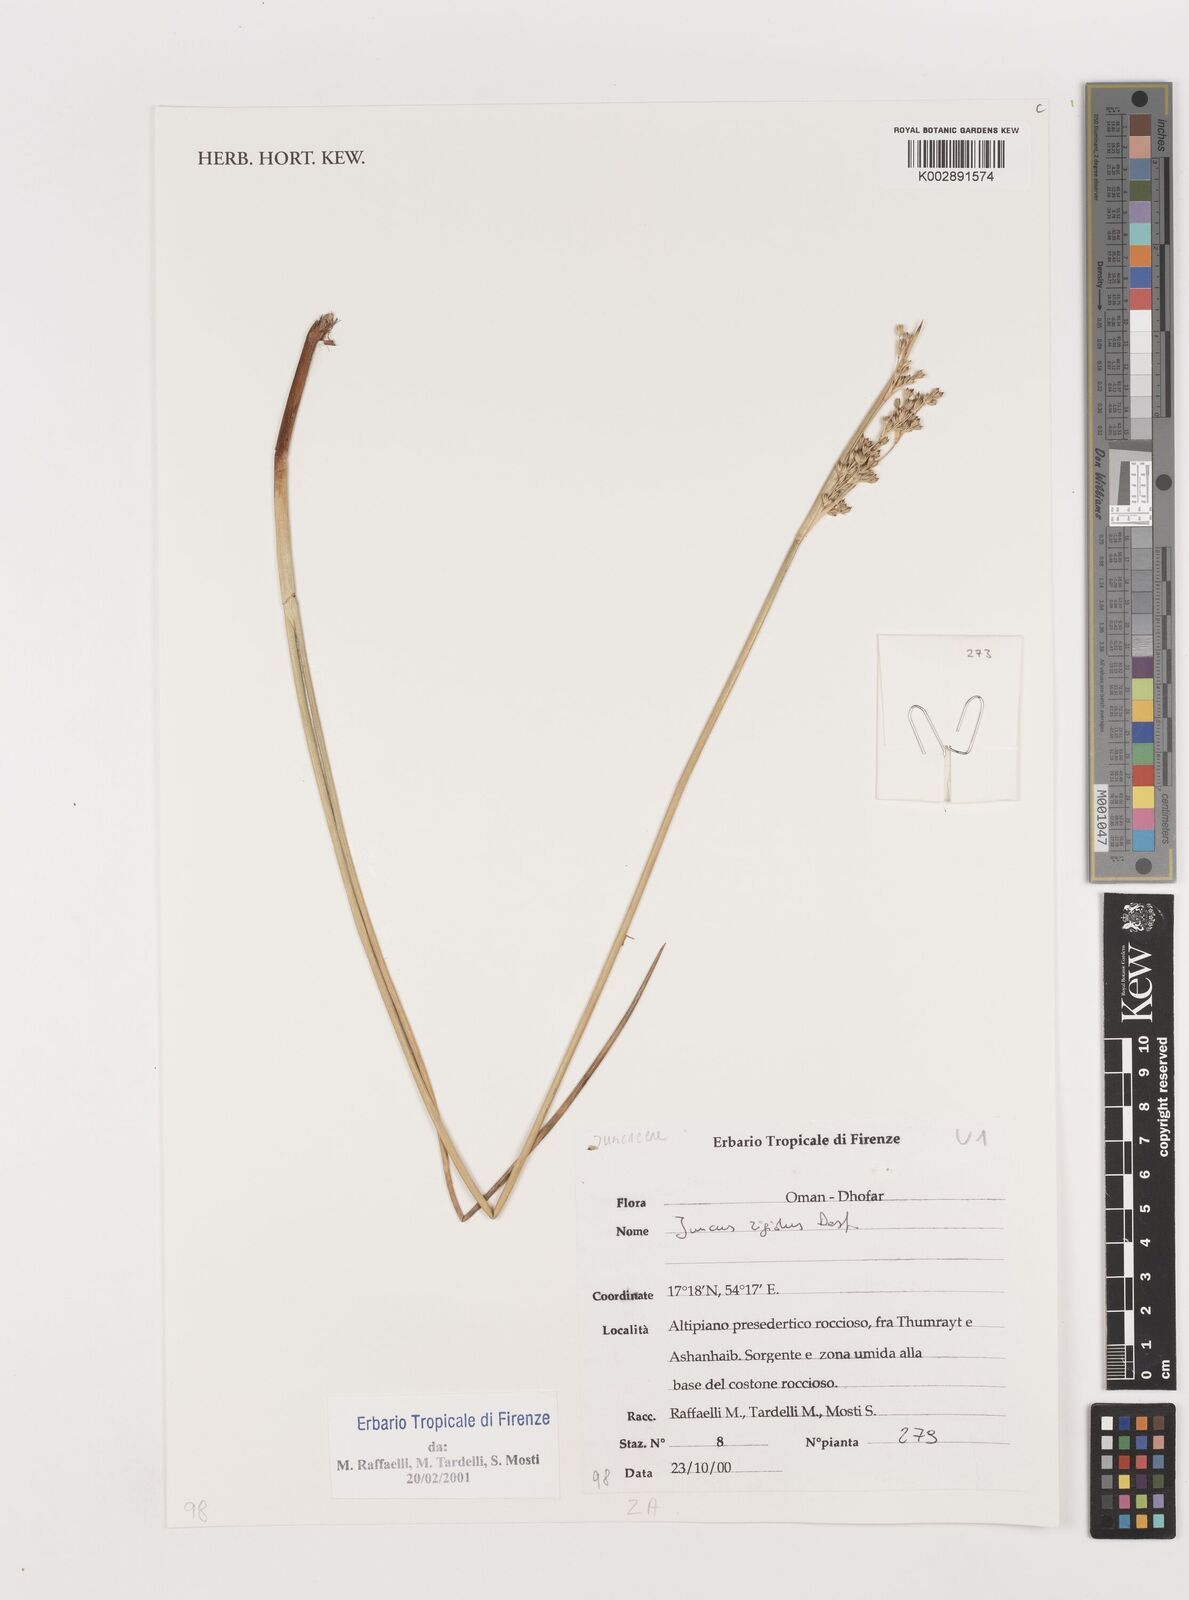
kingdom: Plantae
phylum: Tracheophyta
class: Liliopsida
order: Poales
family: Juncaceae
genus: Juncus
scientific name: Juncus rigidus
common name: Hard sea rush
